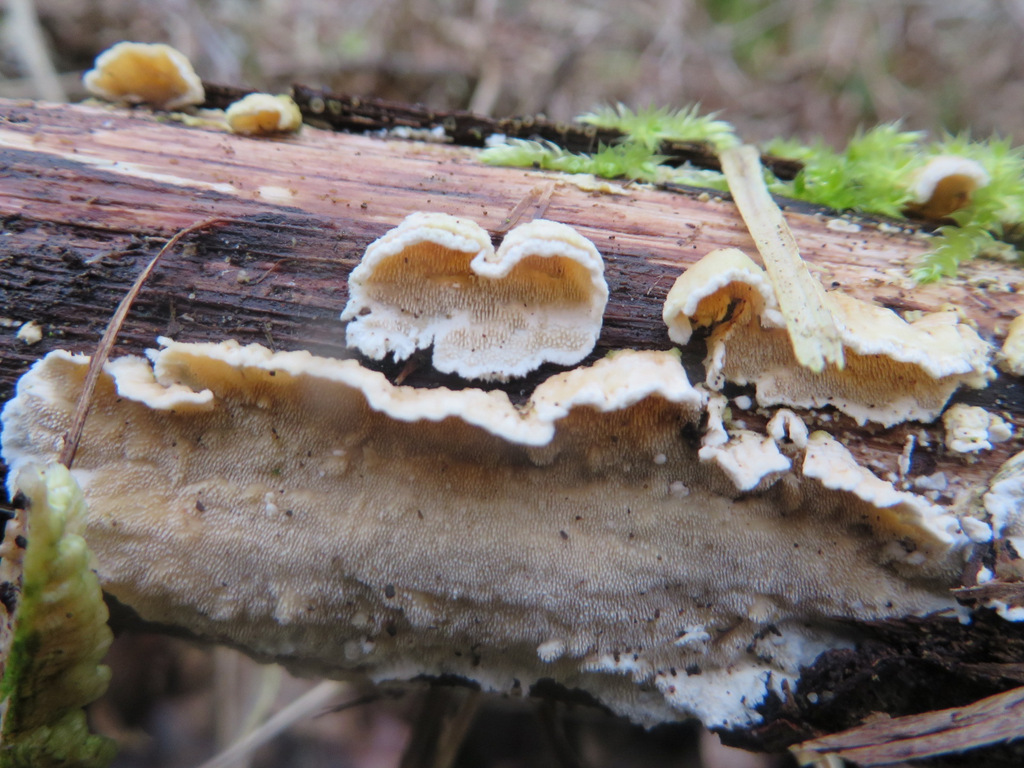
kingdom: Fungi
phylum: Basidiomycota
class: Agaricomycetes
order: Polyporales
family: Steccherinaceae
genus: Steccherinum
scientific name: Steccherinum ochraceum
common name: almindelig skønpig
